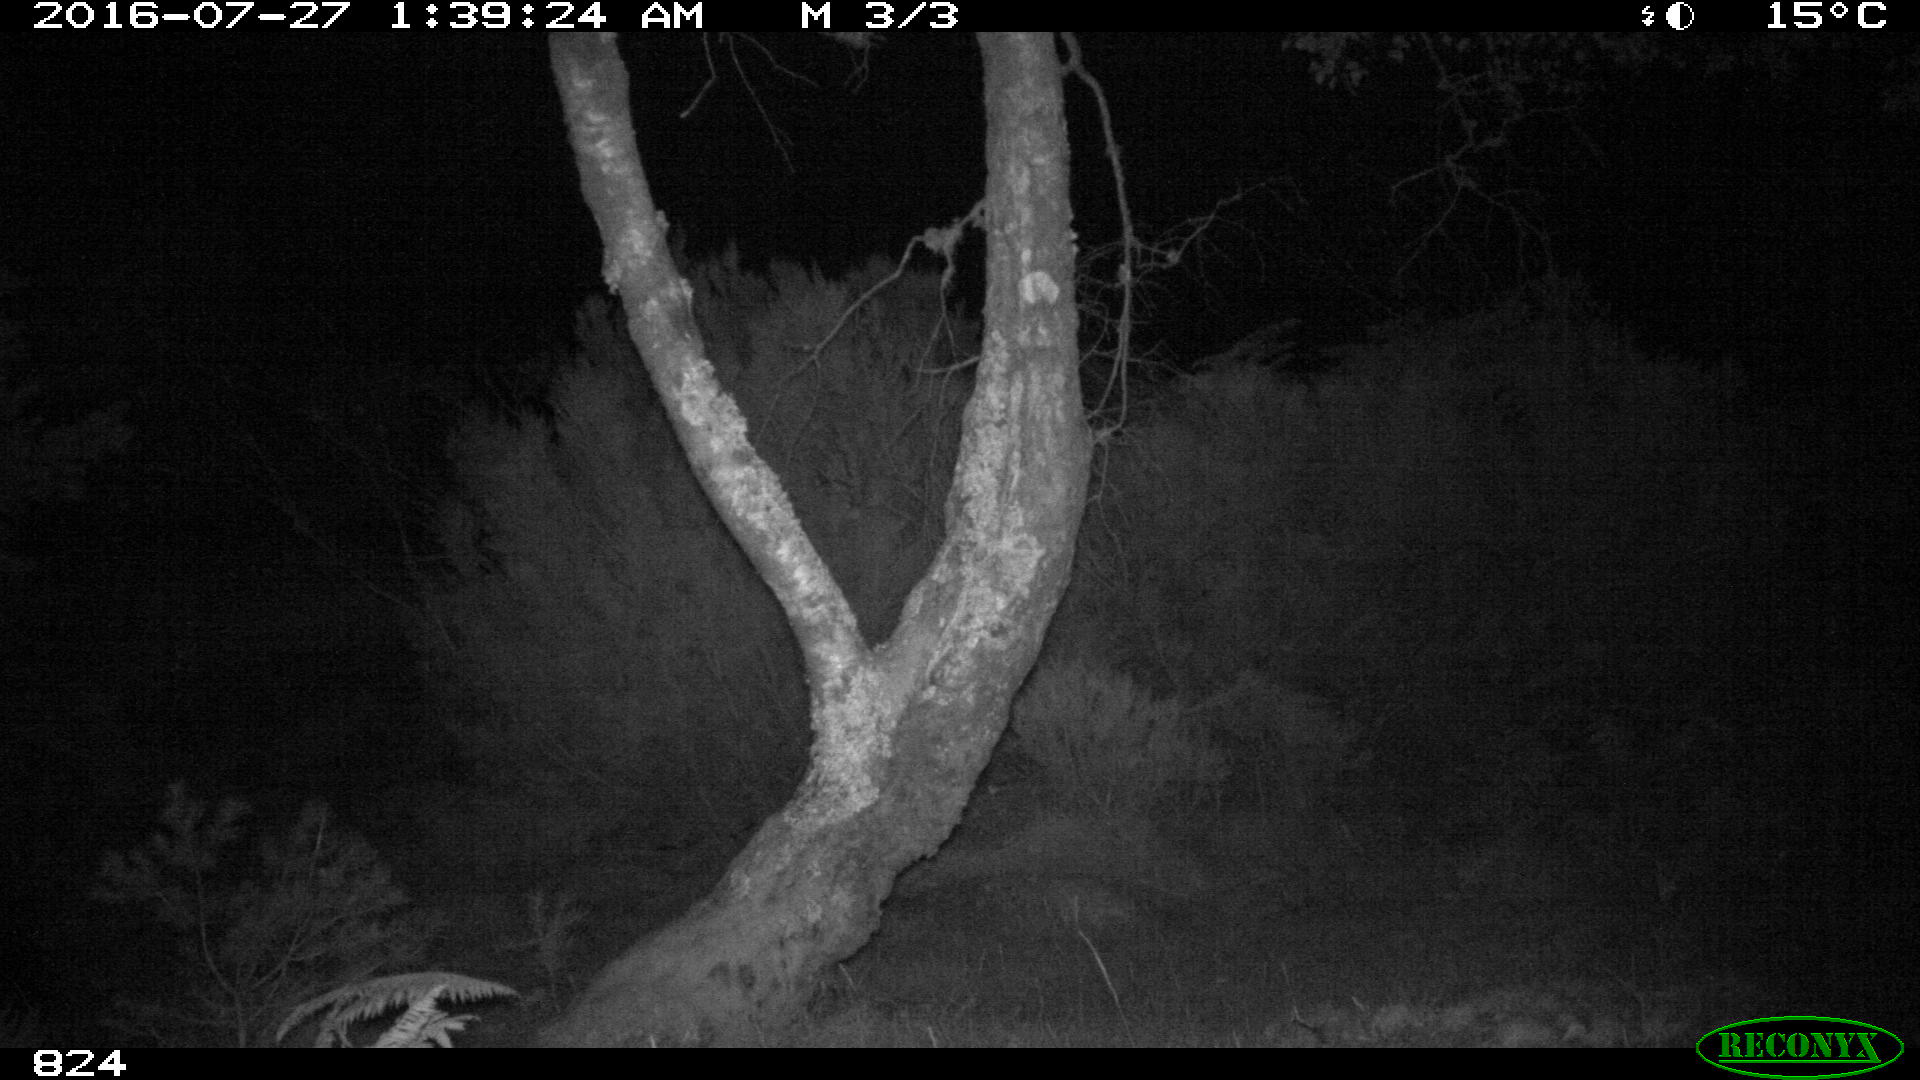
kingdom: Animalia
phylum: Chordata
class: Mammalia
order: Perissodactyla
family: Equidae
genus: Equus
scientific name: Equus caballus
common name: Horse
